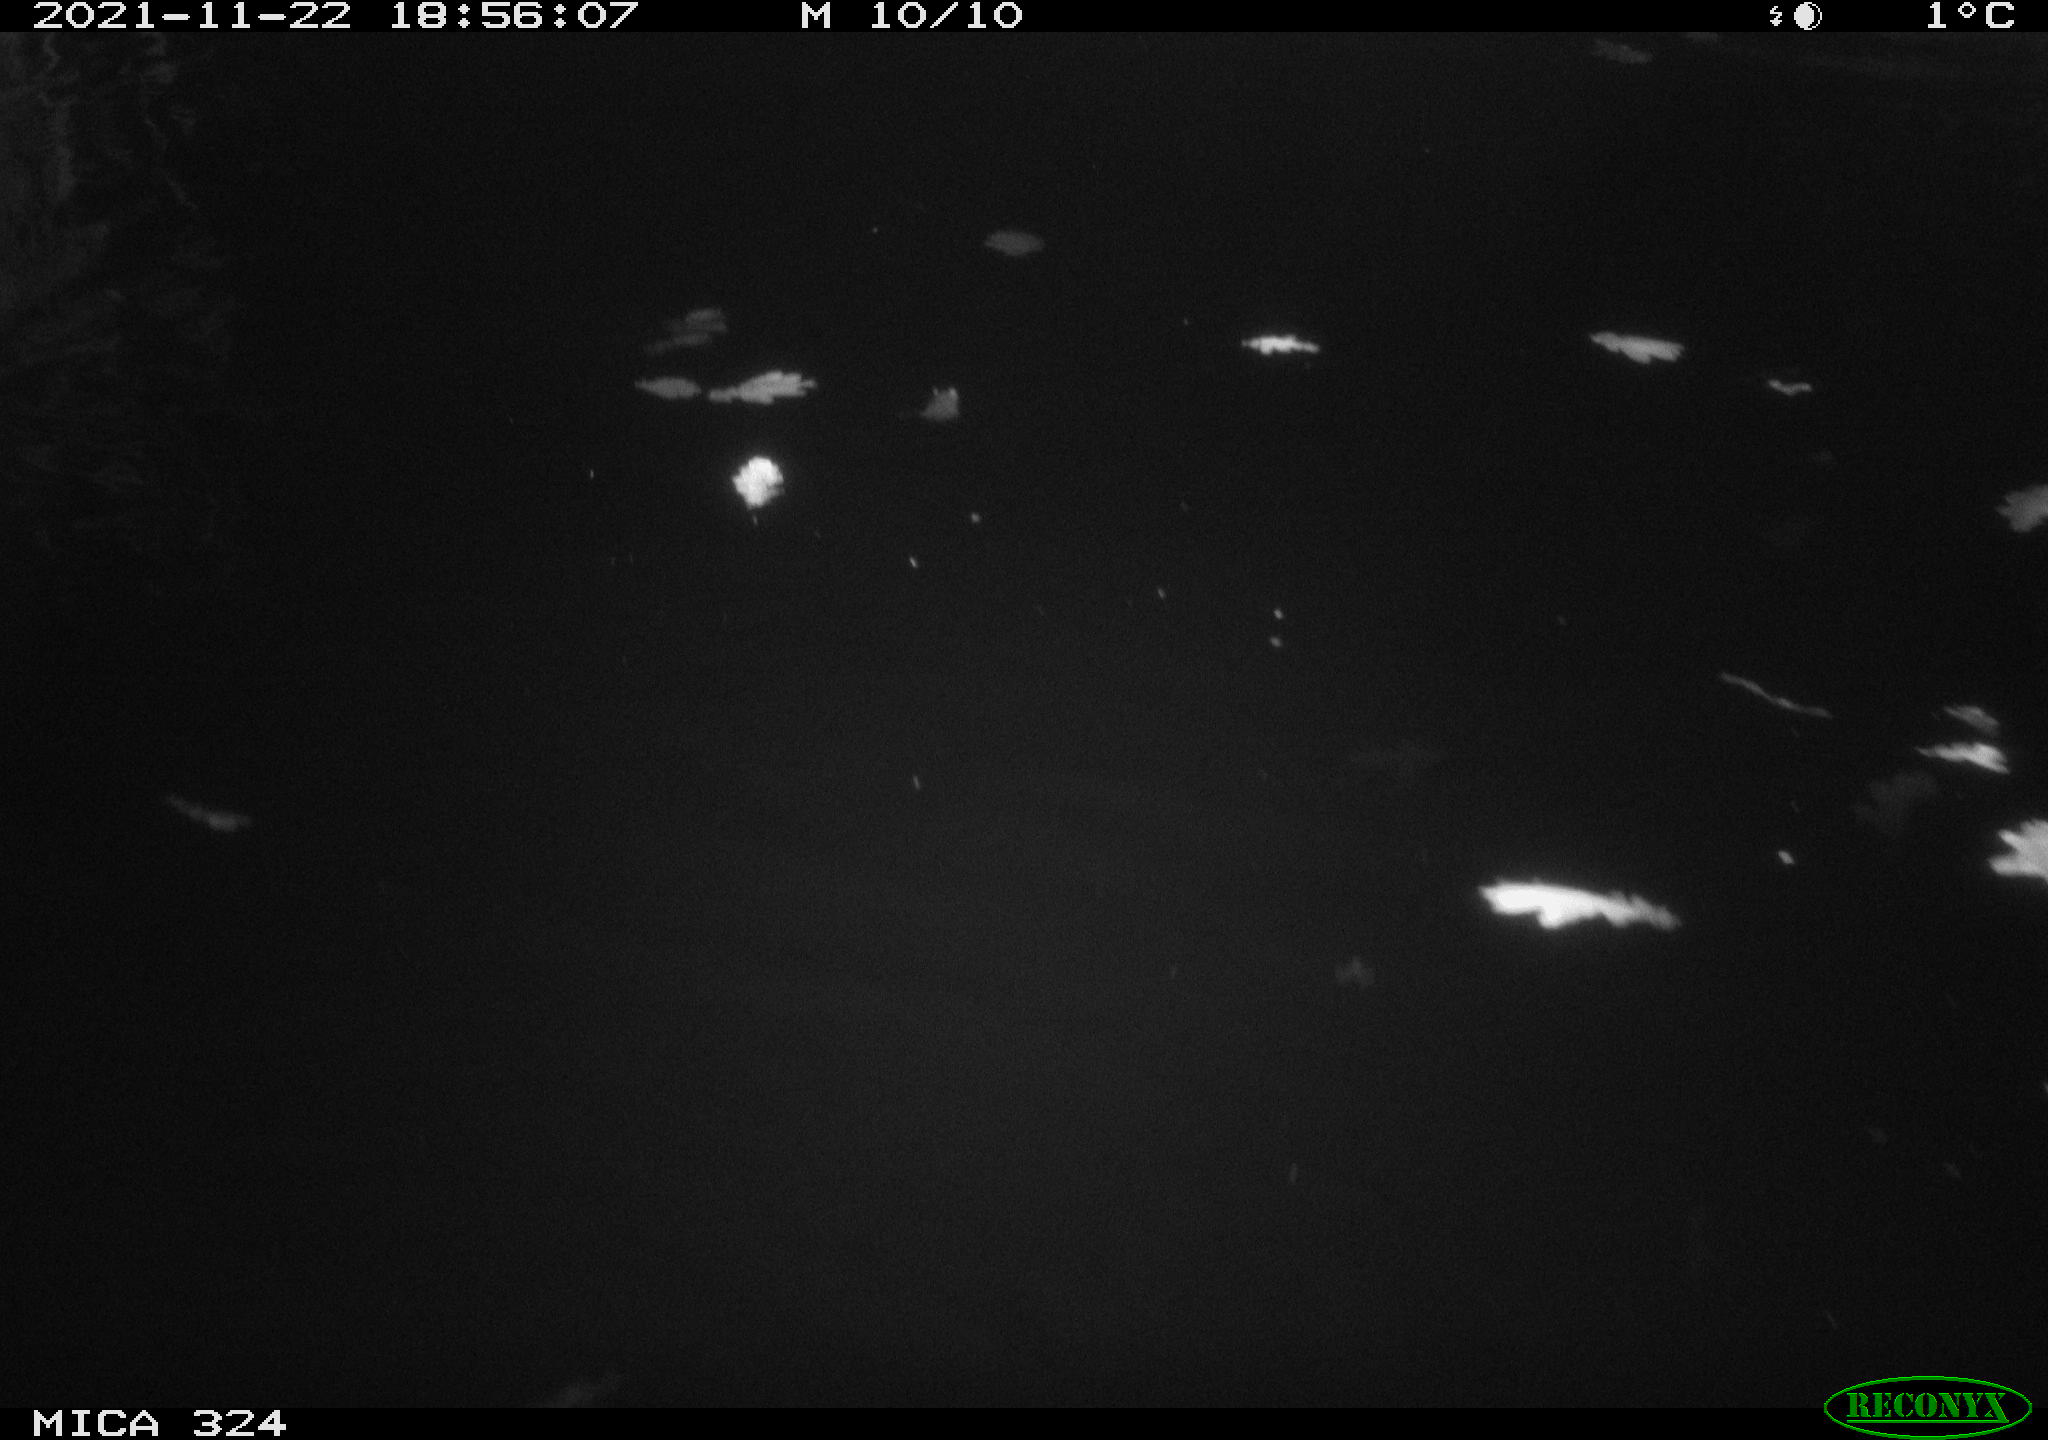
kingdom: Animalia
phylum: Chordata
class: Mammalia
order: Rodentia
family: Cricetidae
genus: Ondatra
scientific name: Ondatra zibethicus
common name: Muskrat
